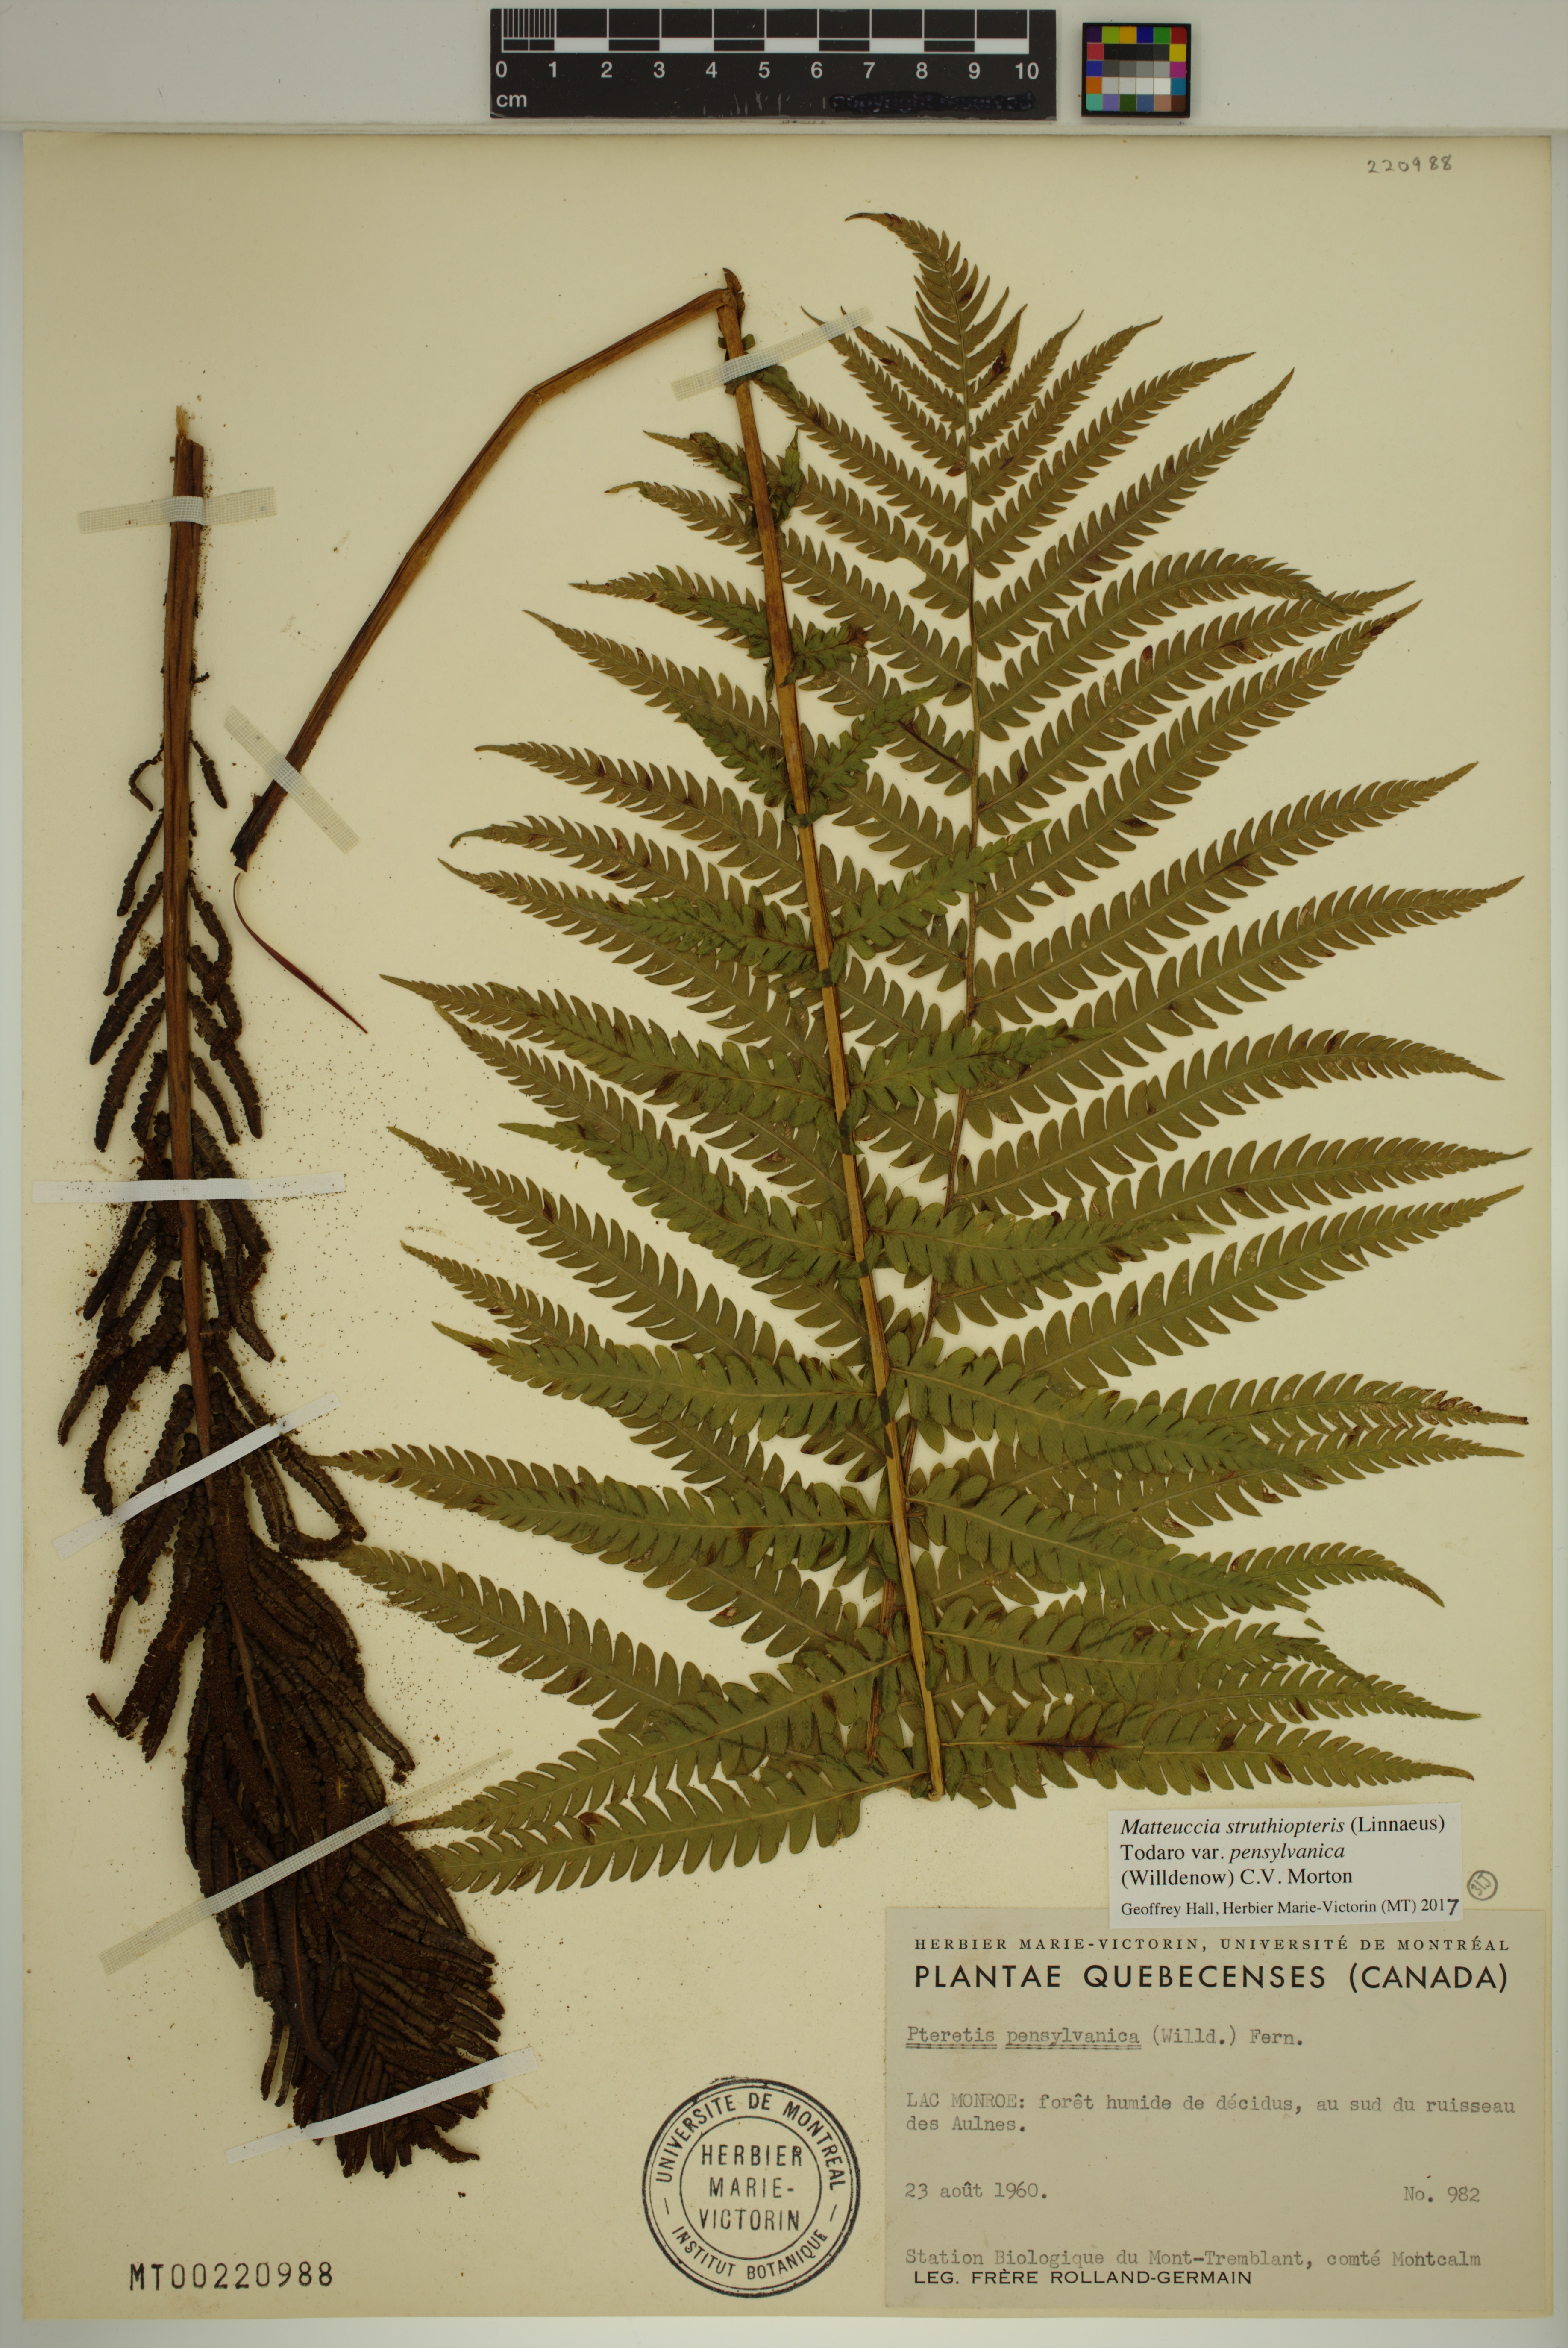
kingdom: Plantae
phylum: Tracheophyta
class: Polypodiopsida
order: Polypodiales
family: Onocleaceae
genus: Matteuccia
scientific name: Matteuccia pensylvanica
